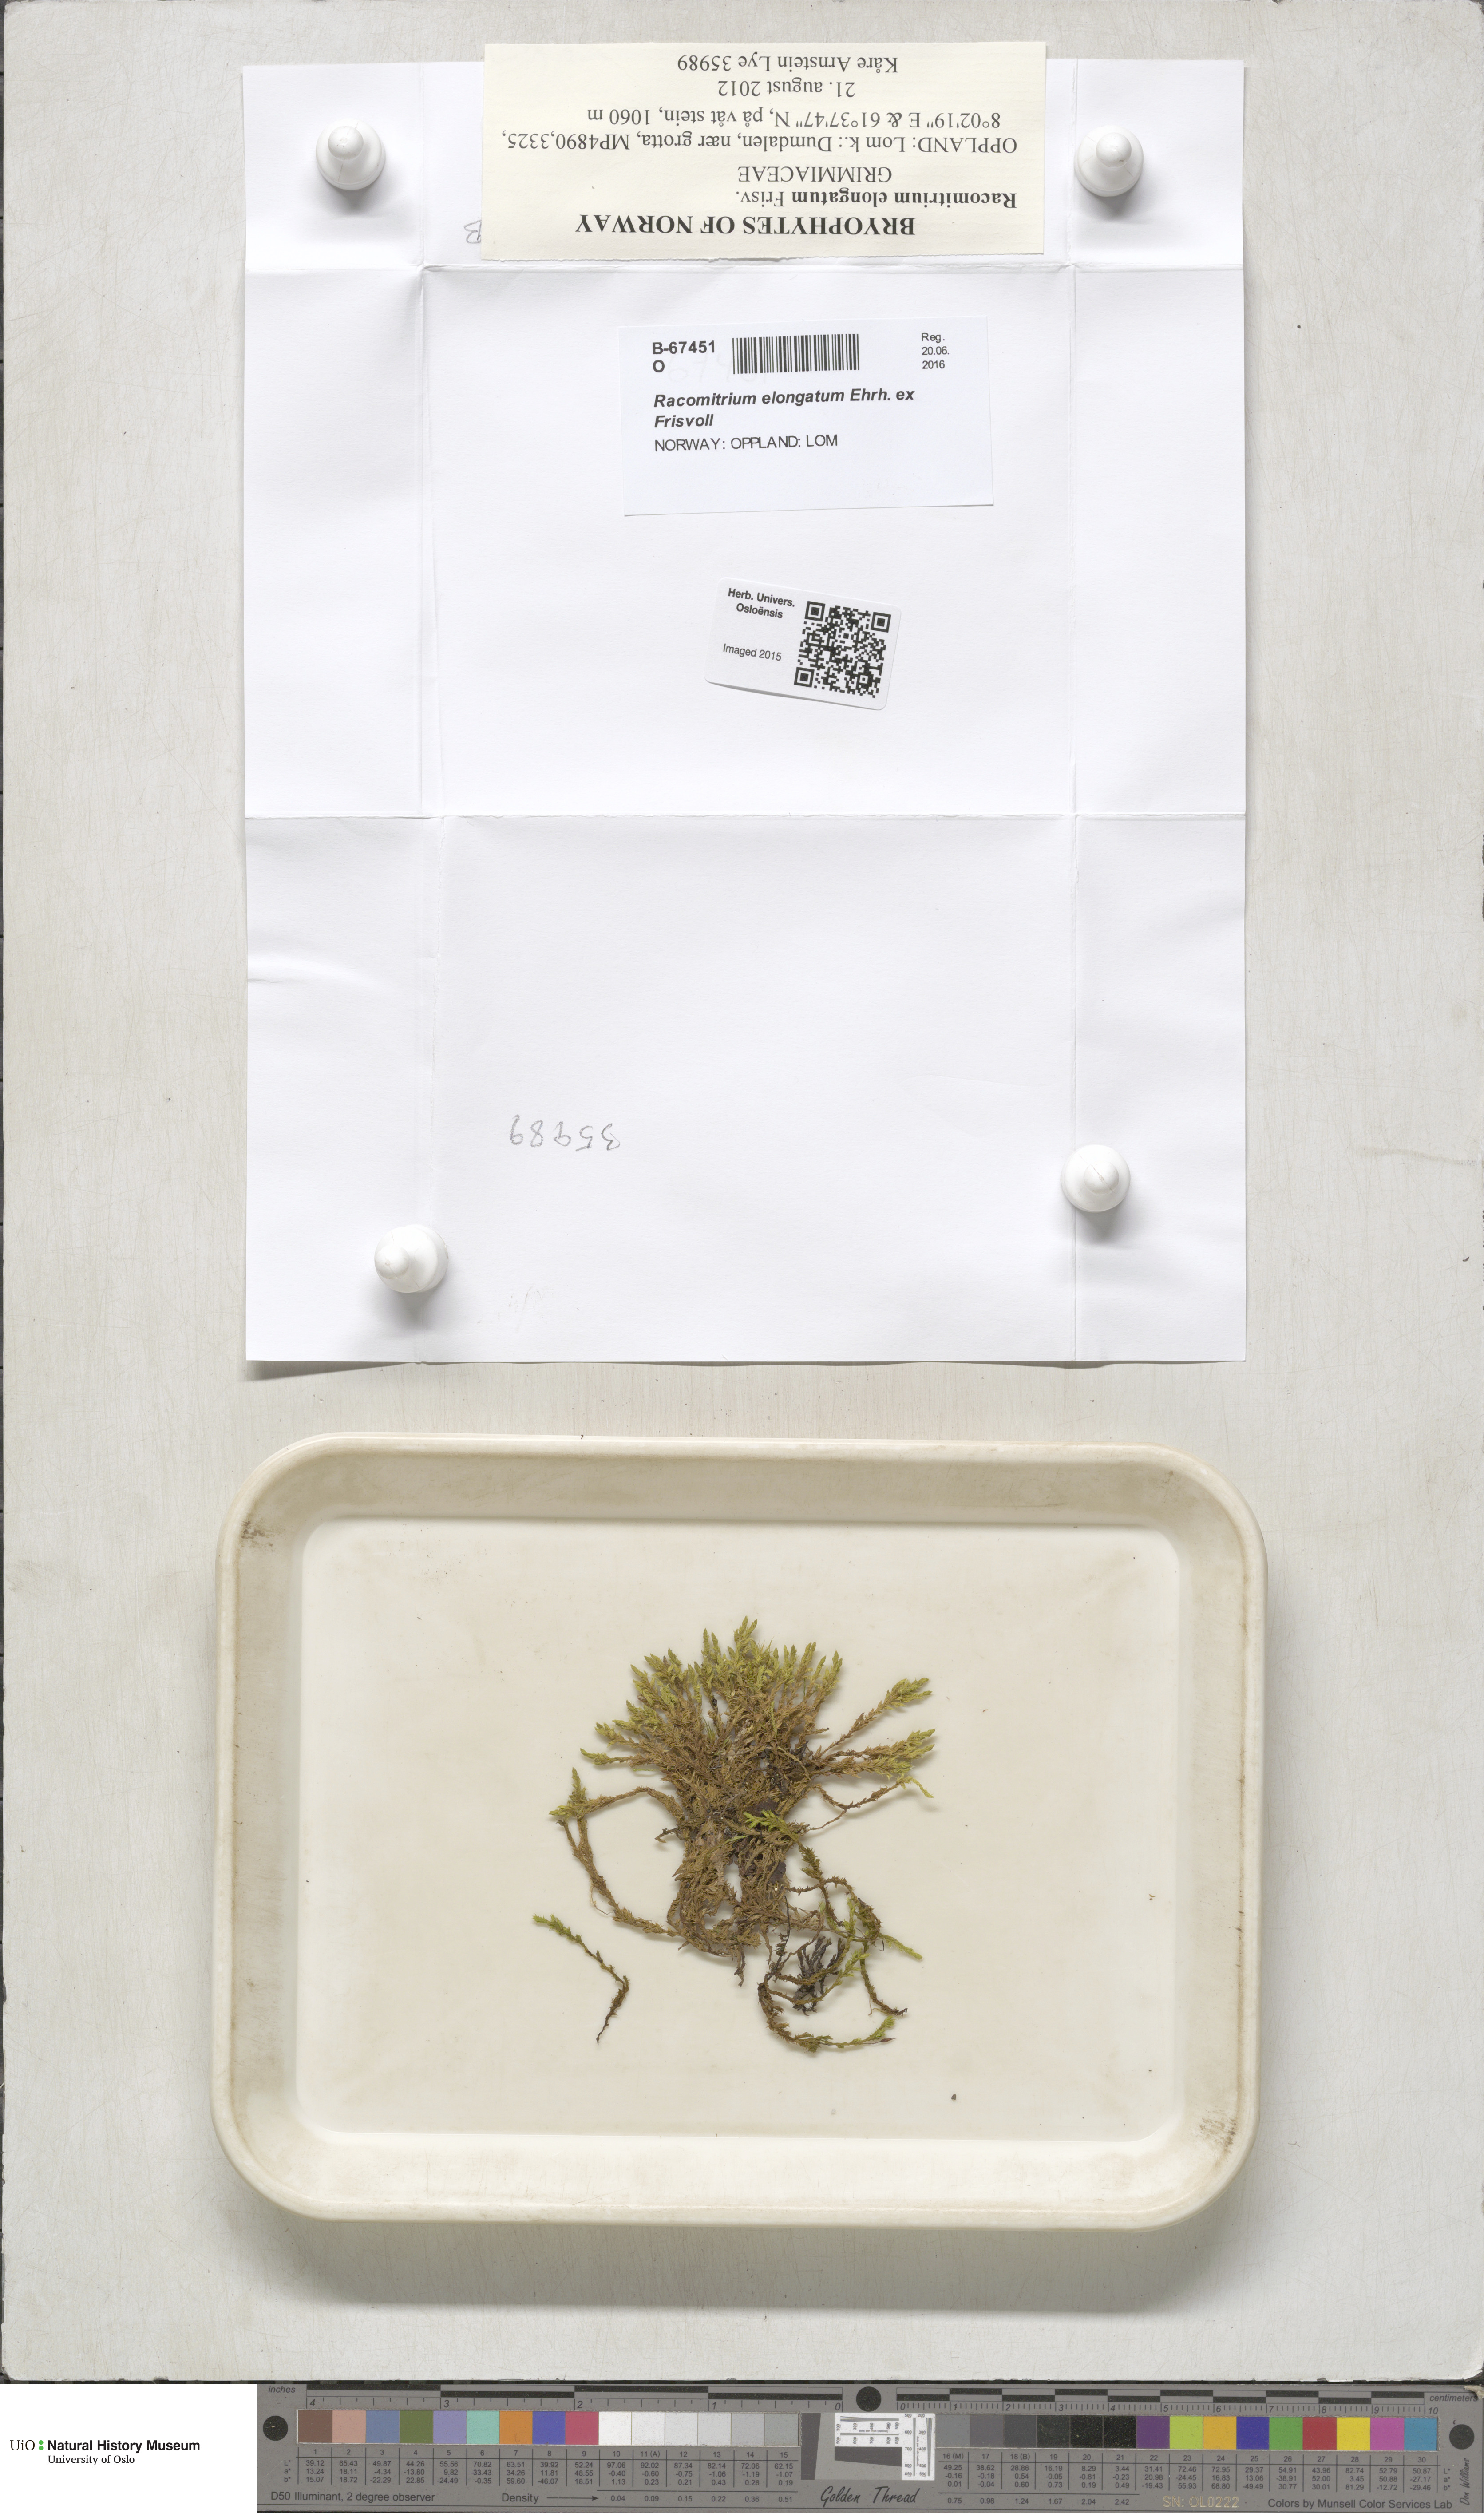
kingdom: Plantae
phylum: Bryophyta
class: Bryopsida
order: Grimmiales
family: Grimmiaceae
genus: Niphotrichum
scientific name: Niphotrichum elongatum
